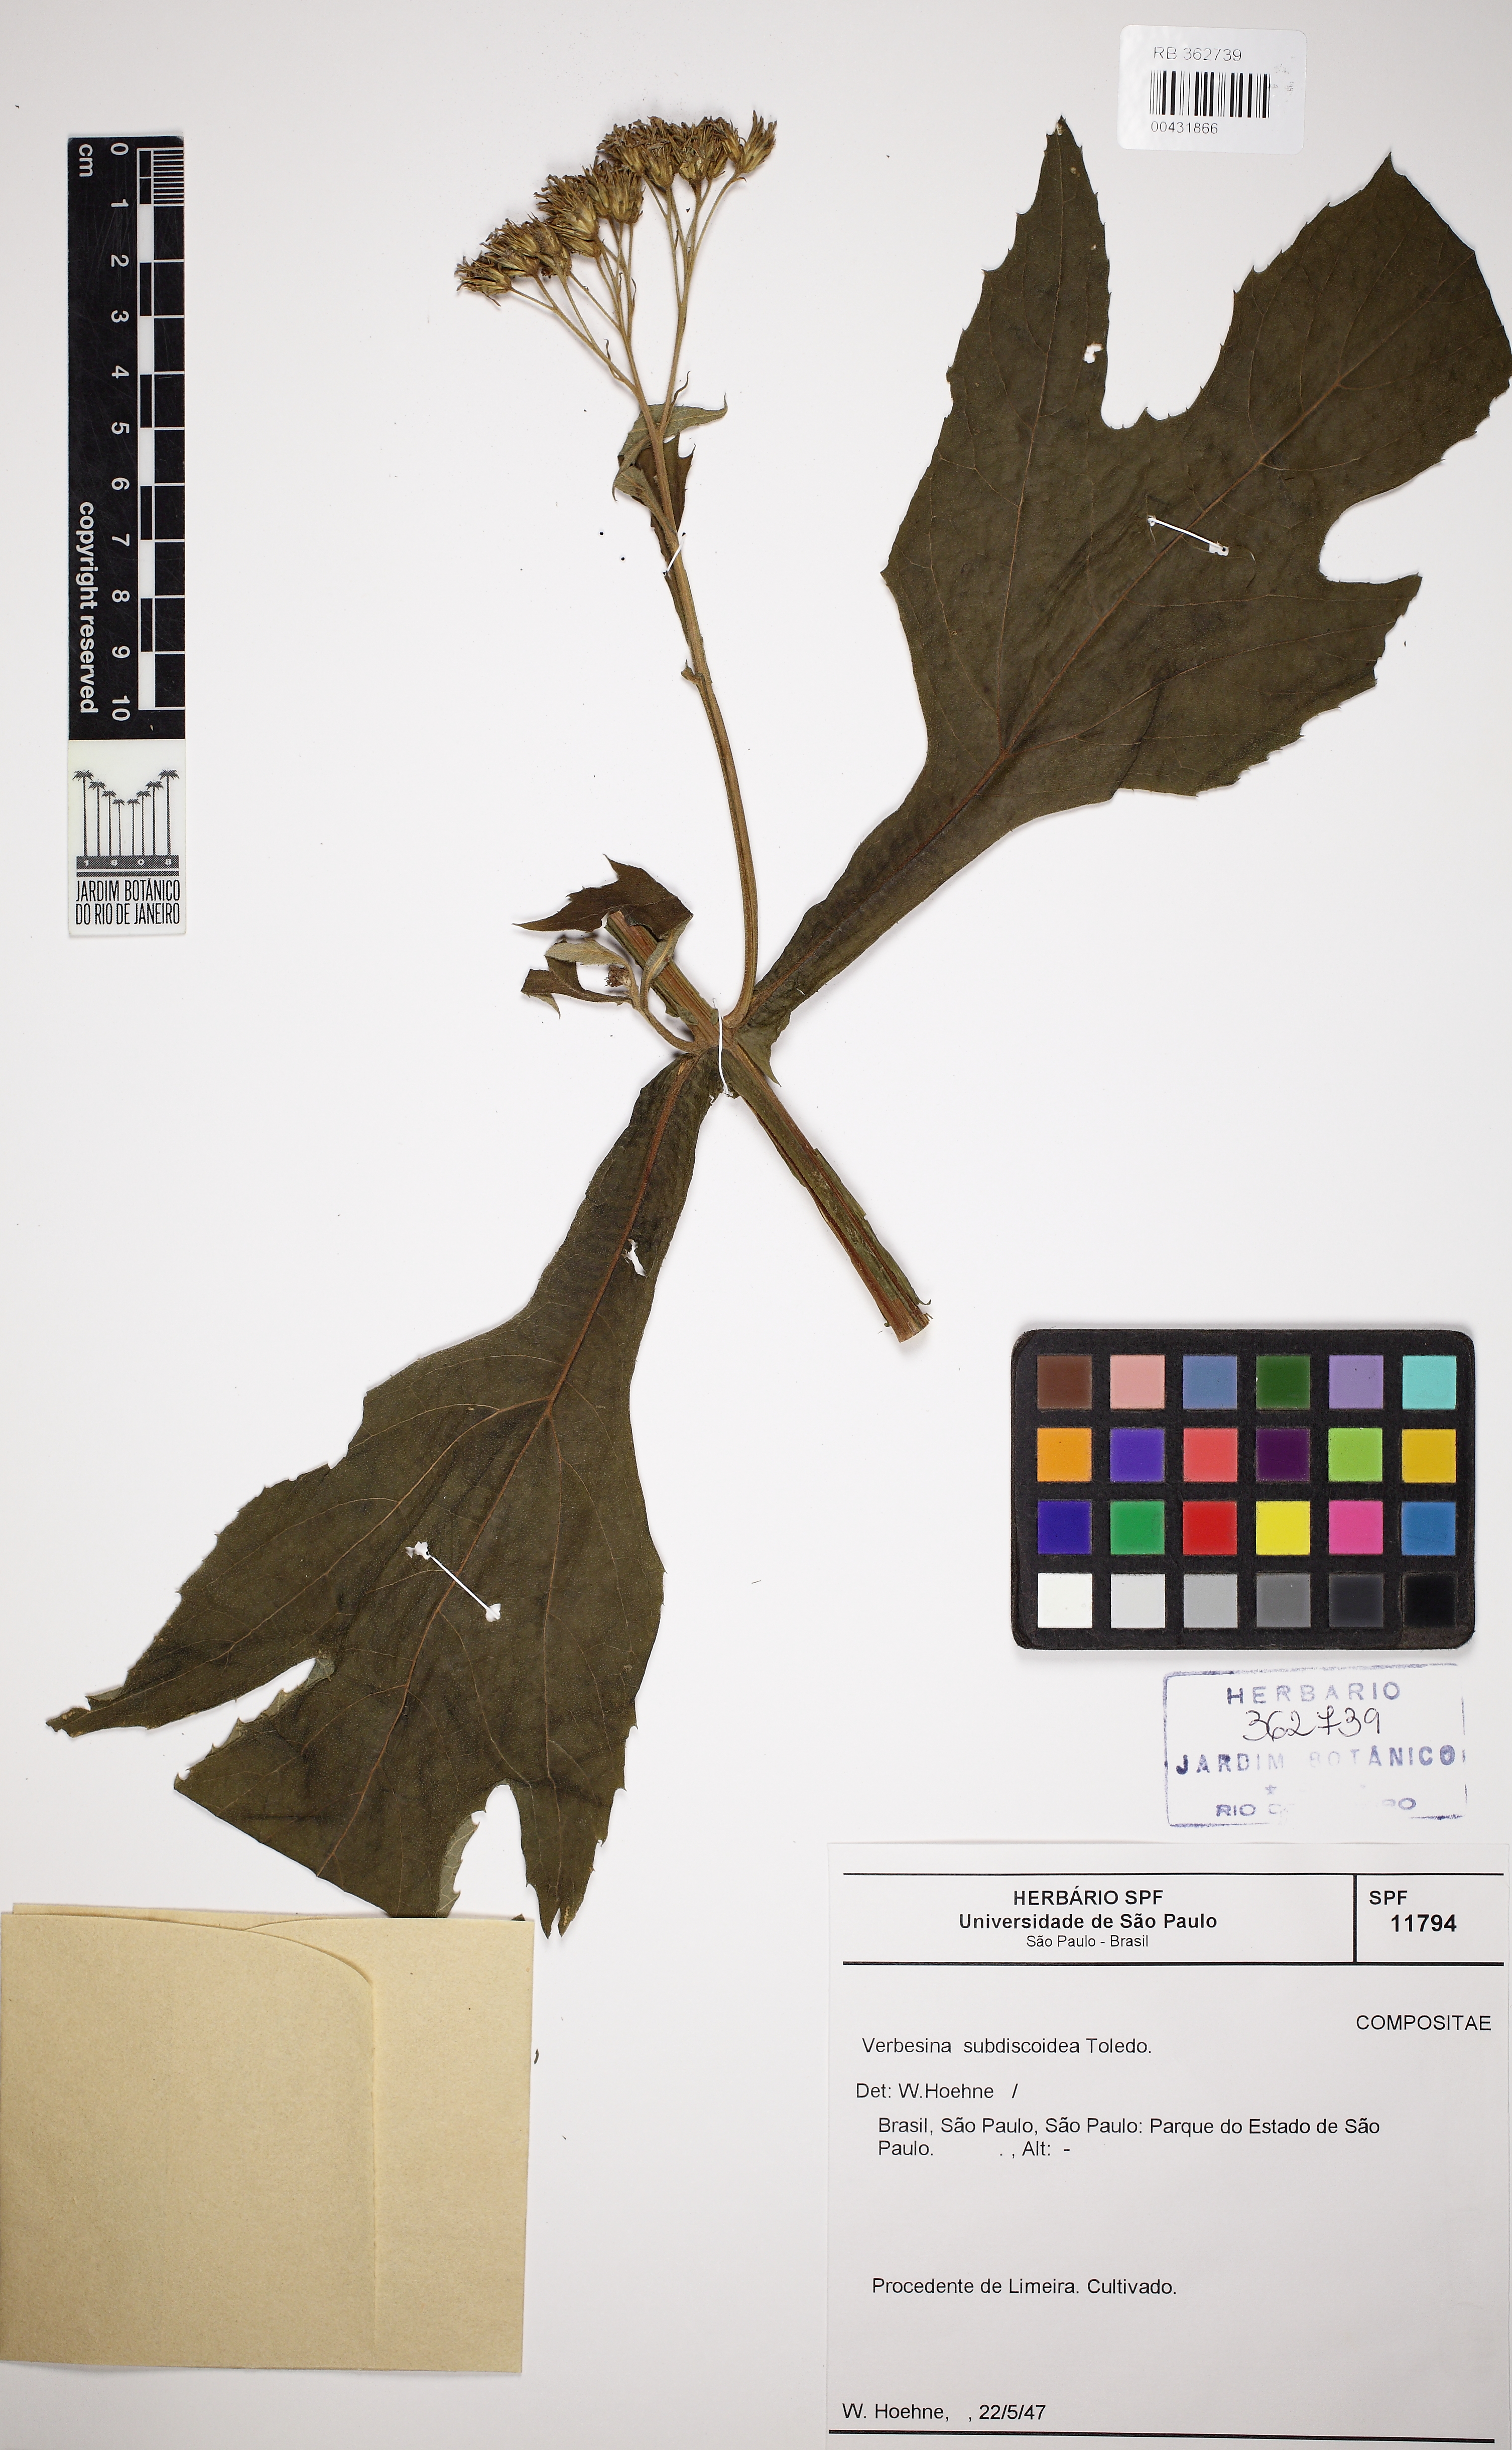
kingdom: Plantae
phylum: Tracheophyta
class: Magnoliopsida
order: Asterales
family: Asteraceae
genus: Verbesina
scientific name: Verbesina subdiscoidea
